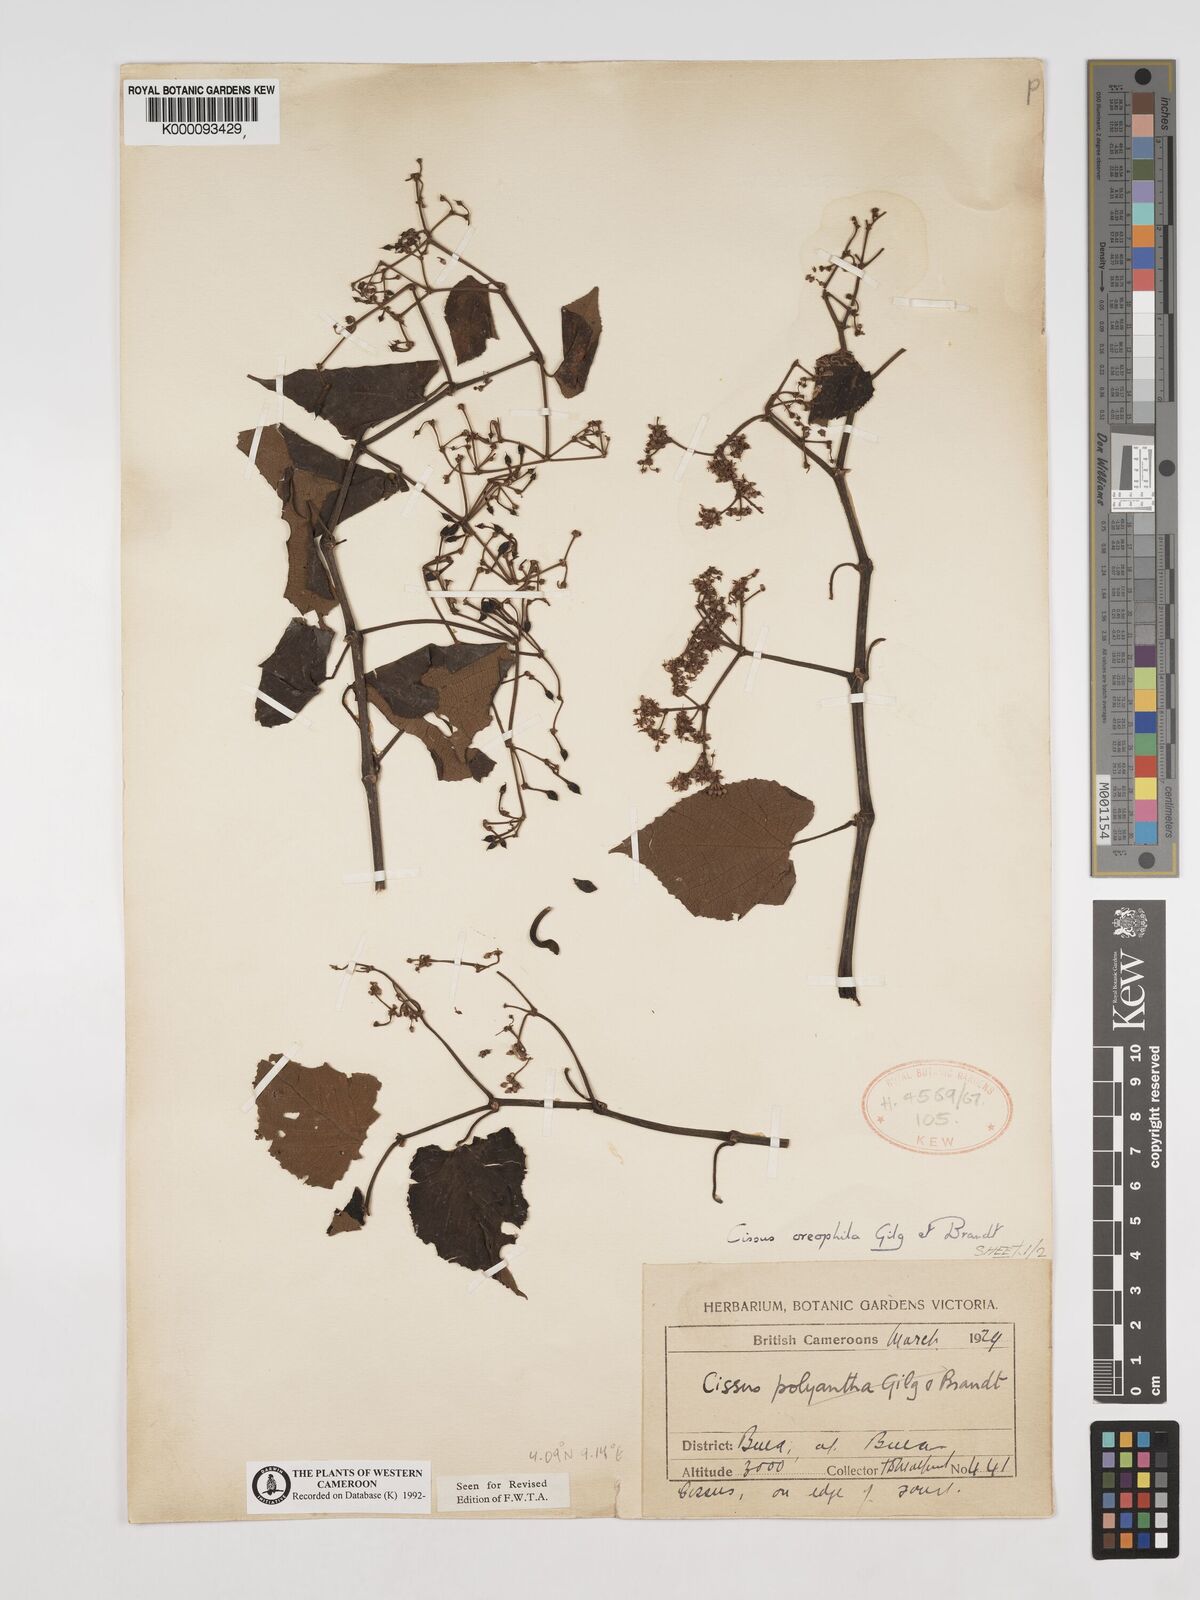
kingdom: Plantae
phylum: Tracheophyta
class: Magnoliopsida
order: Vitales
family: Vitaceae
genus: Cissus
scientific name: Cissus oreophila
